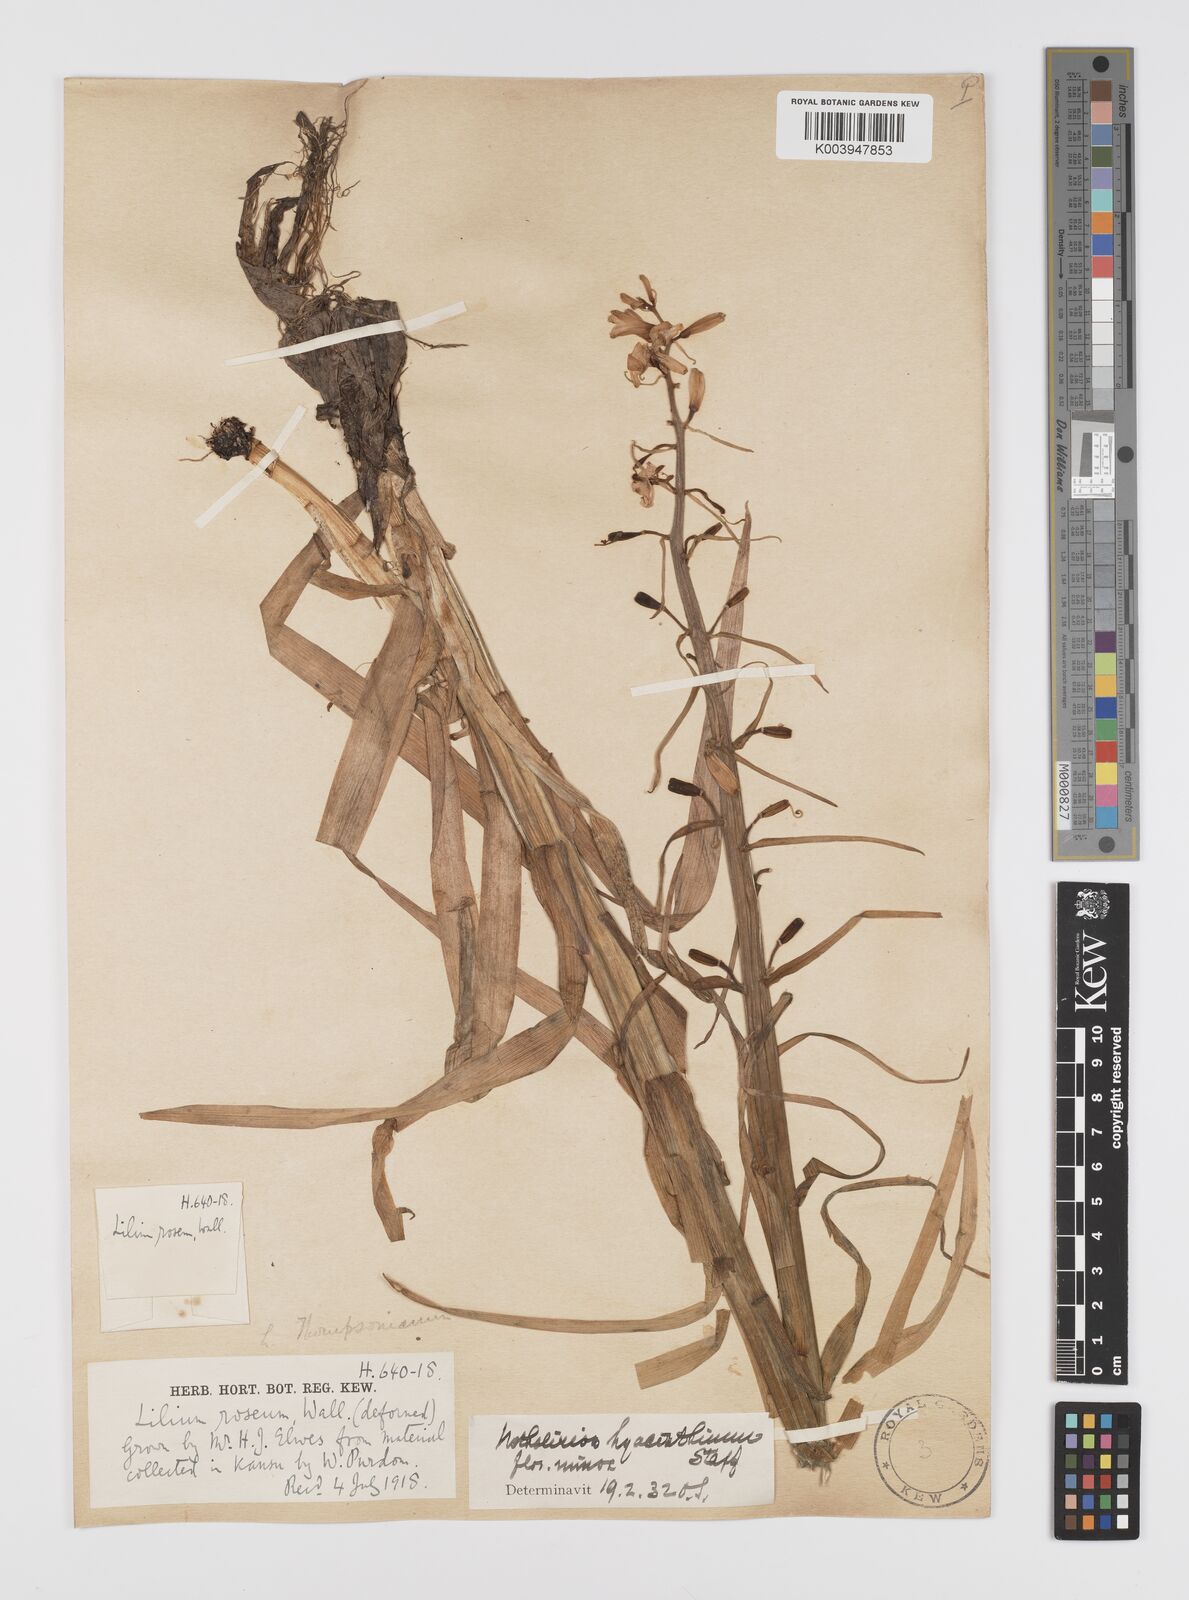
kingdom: Plantae
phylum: Tracheophyta
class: Liliopsida
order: Liliales
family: Liliaceae
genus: Notholirion
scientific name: Notholirion bulbuliferum
